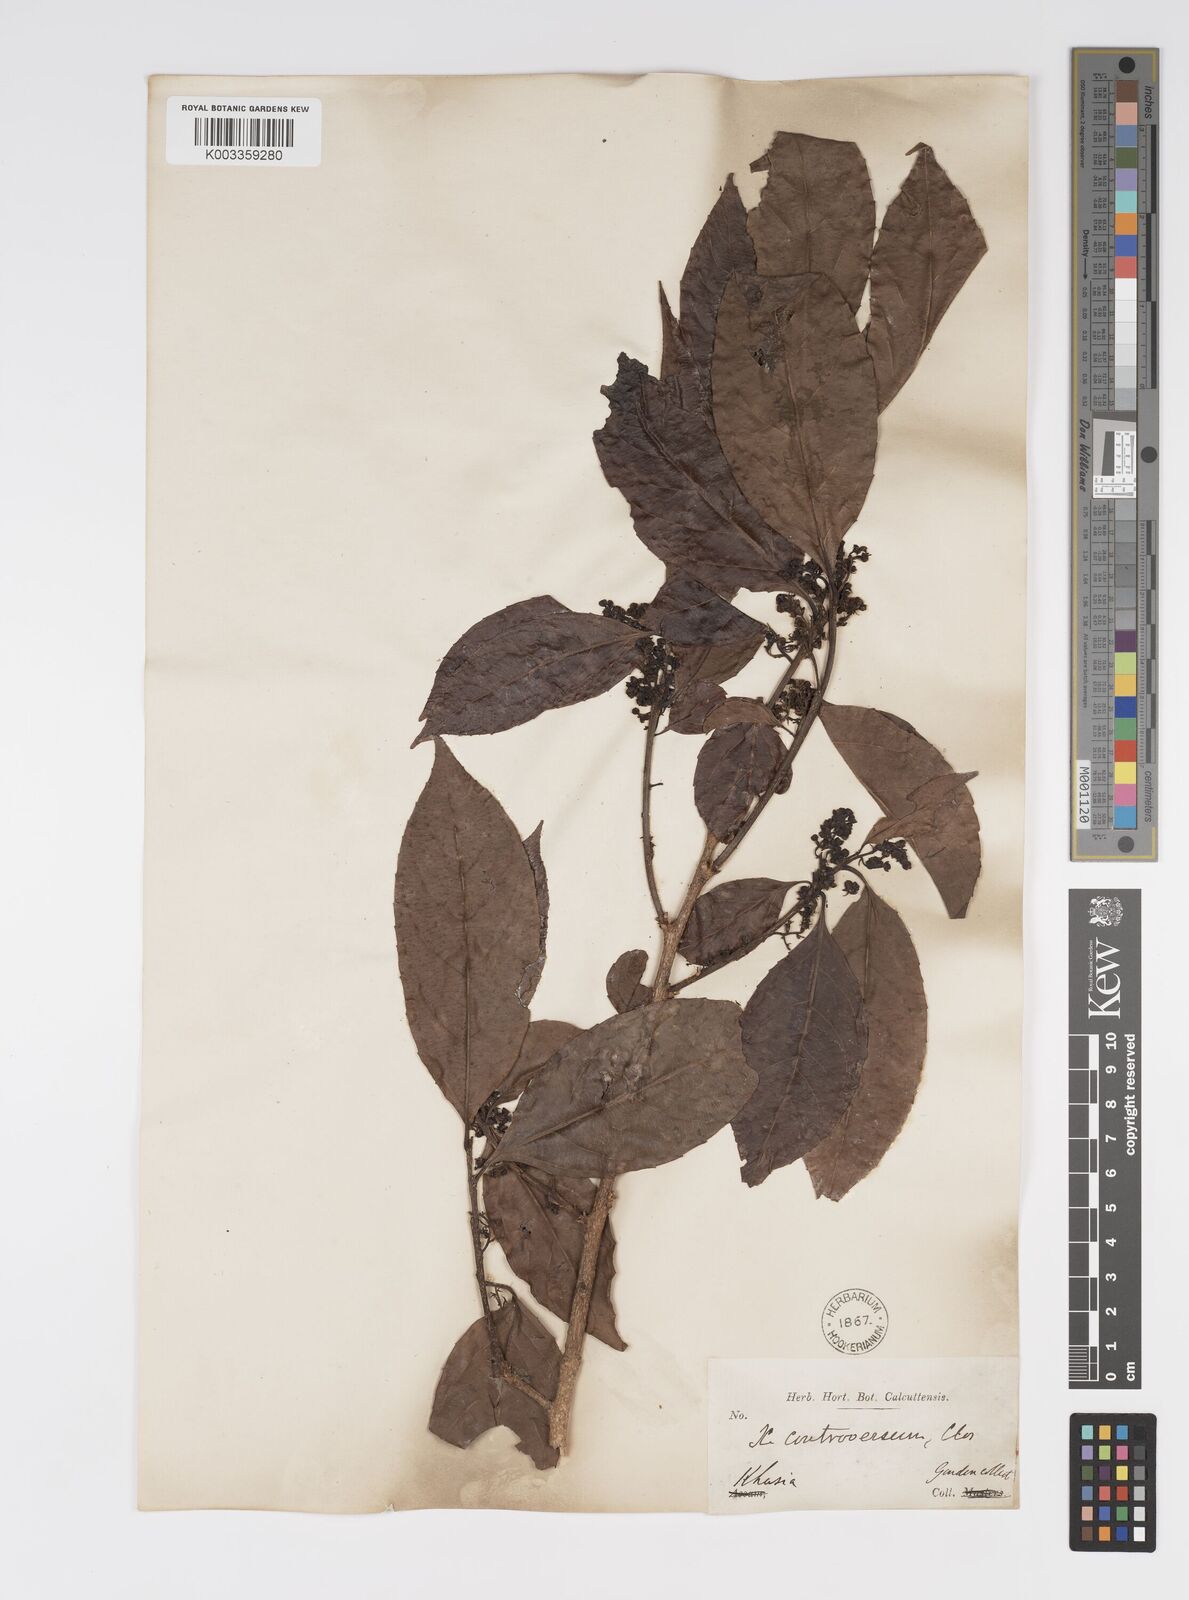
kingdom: Plantae
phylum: Tracheophyta
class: Magnoliopsida
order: Malpighiales
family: Salicaceae
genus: Xylosma
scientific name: Xylosma controversa
